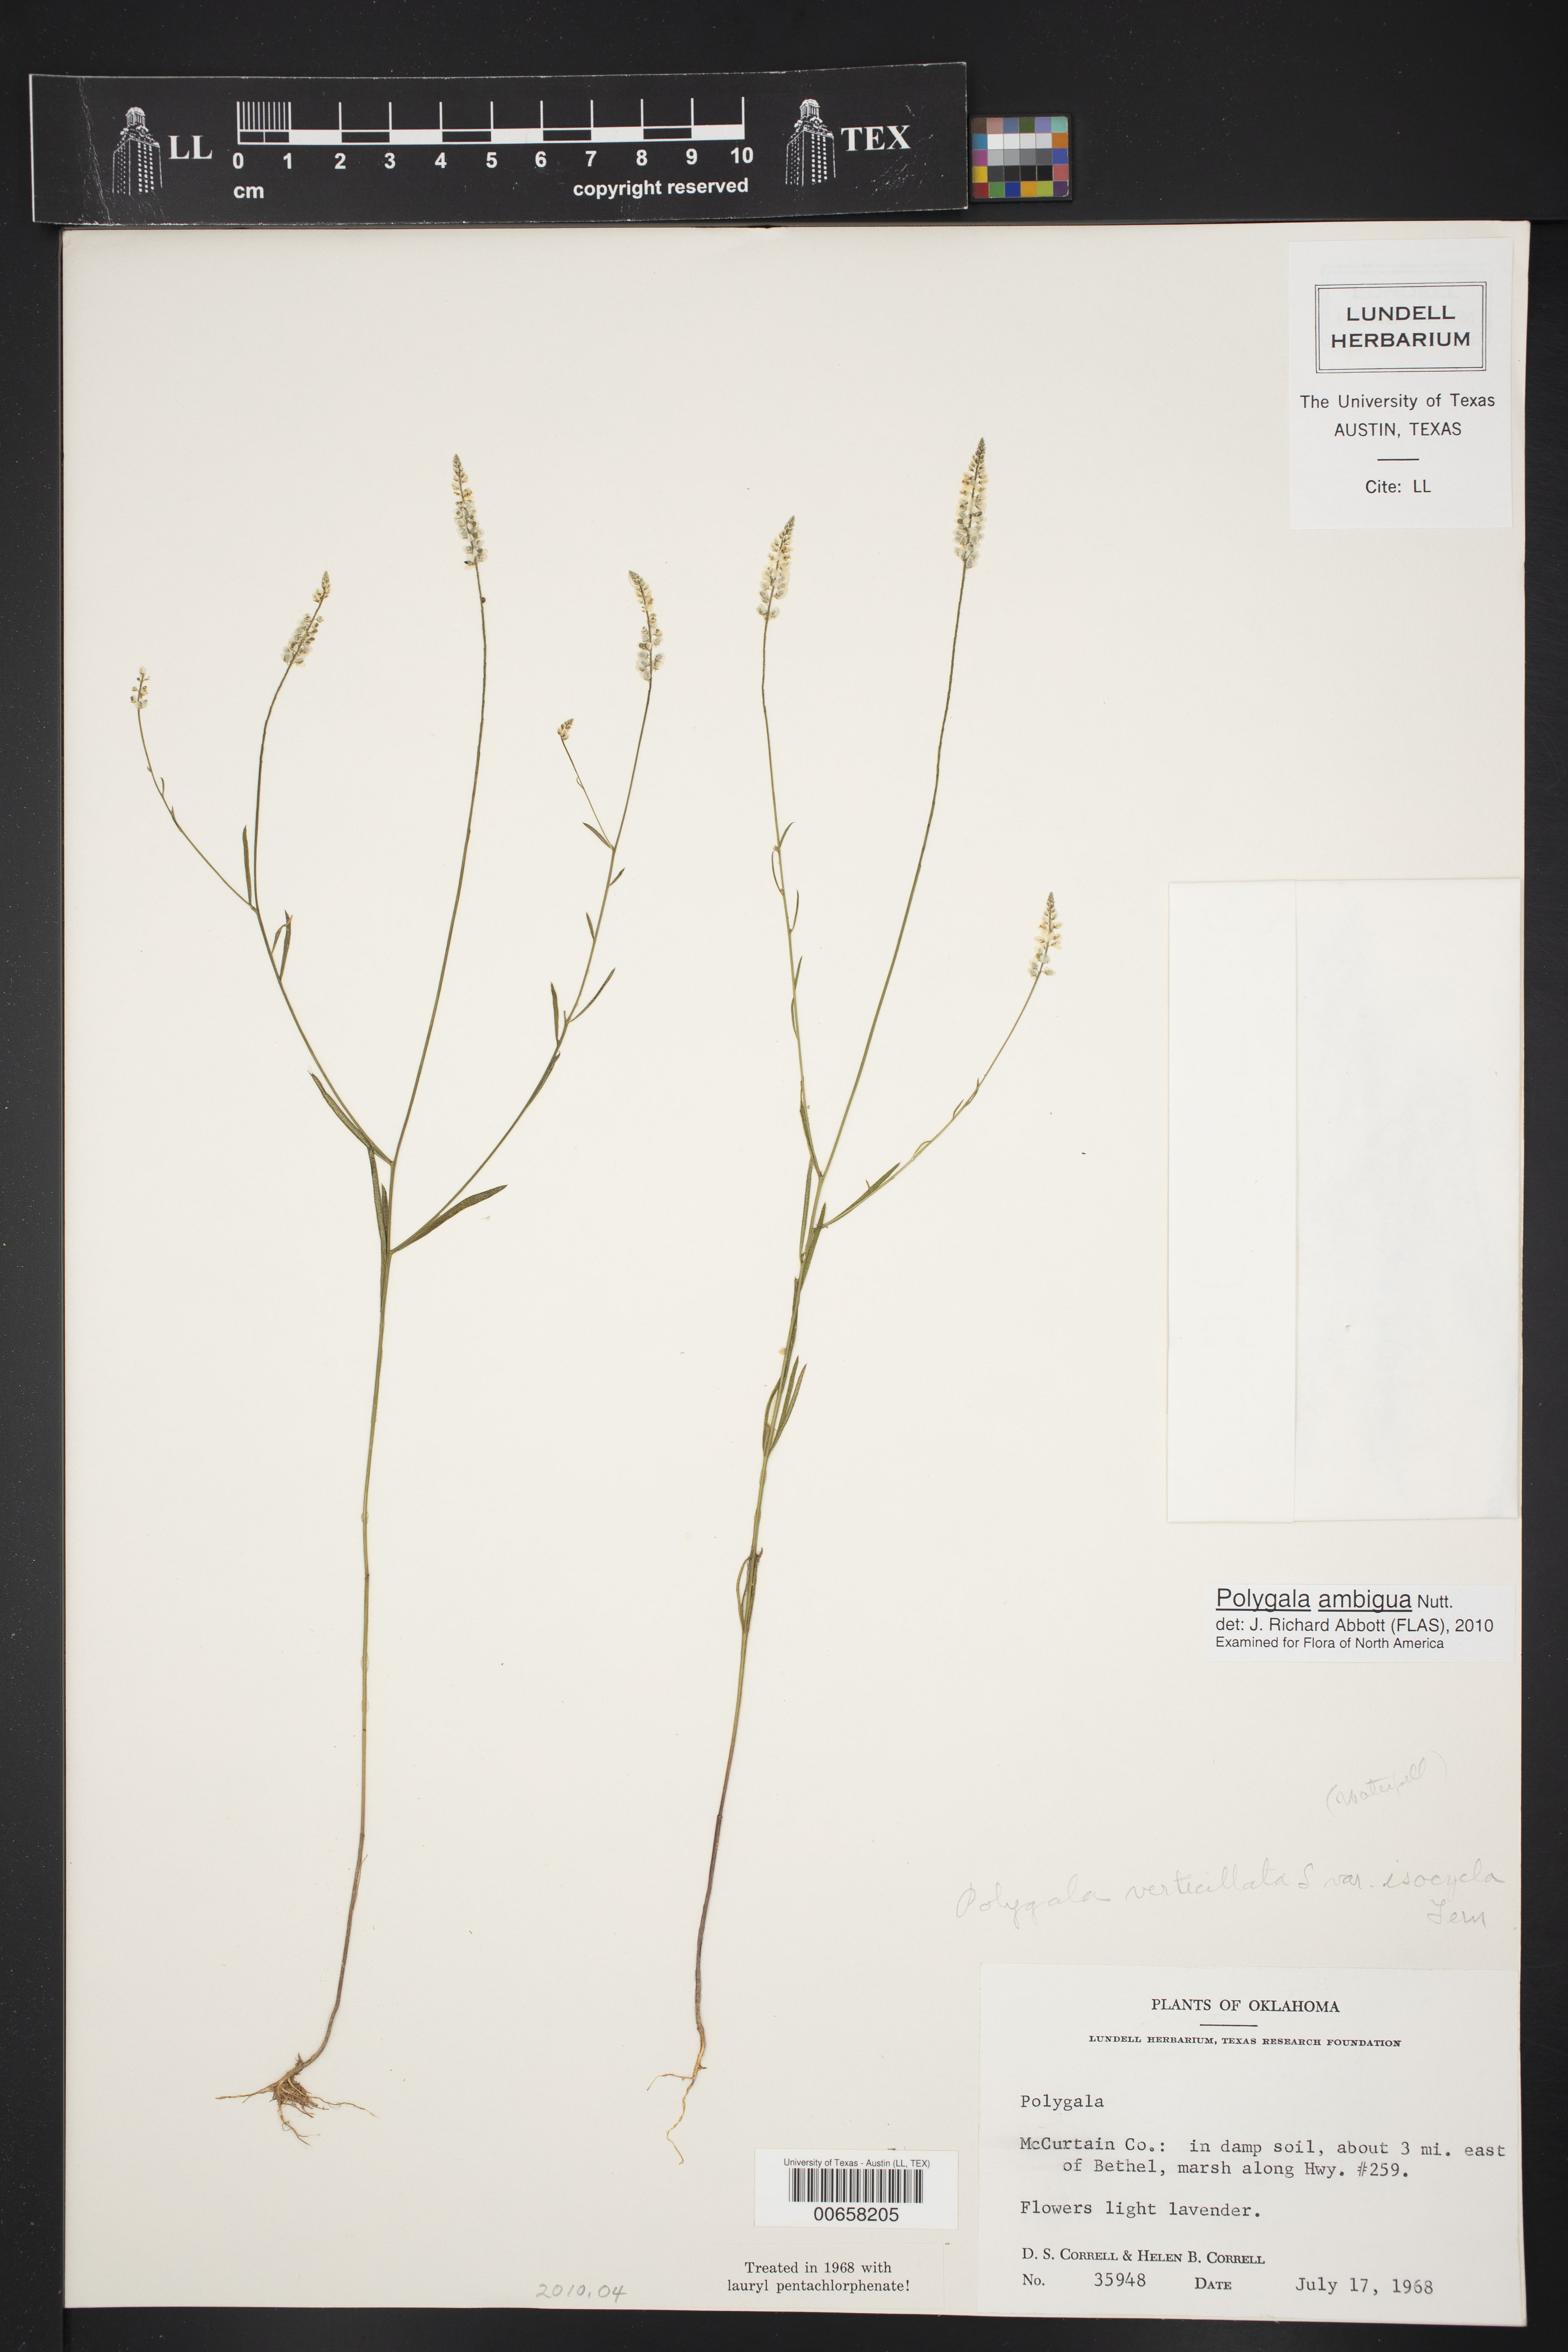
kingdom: Plantae
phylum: Tracheophyta
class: Magnoliopsida
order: Fabales
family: Polygalaceae
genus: Polygala
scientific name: Polygala ambigua
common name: Alternate milkwort
